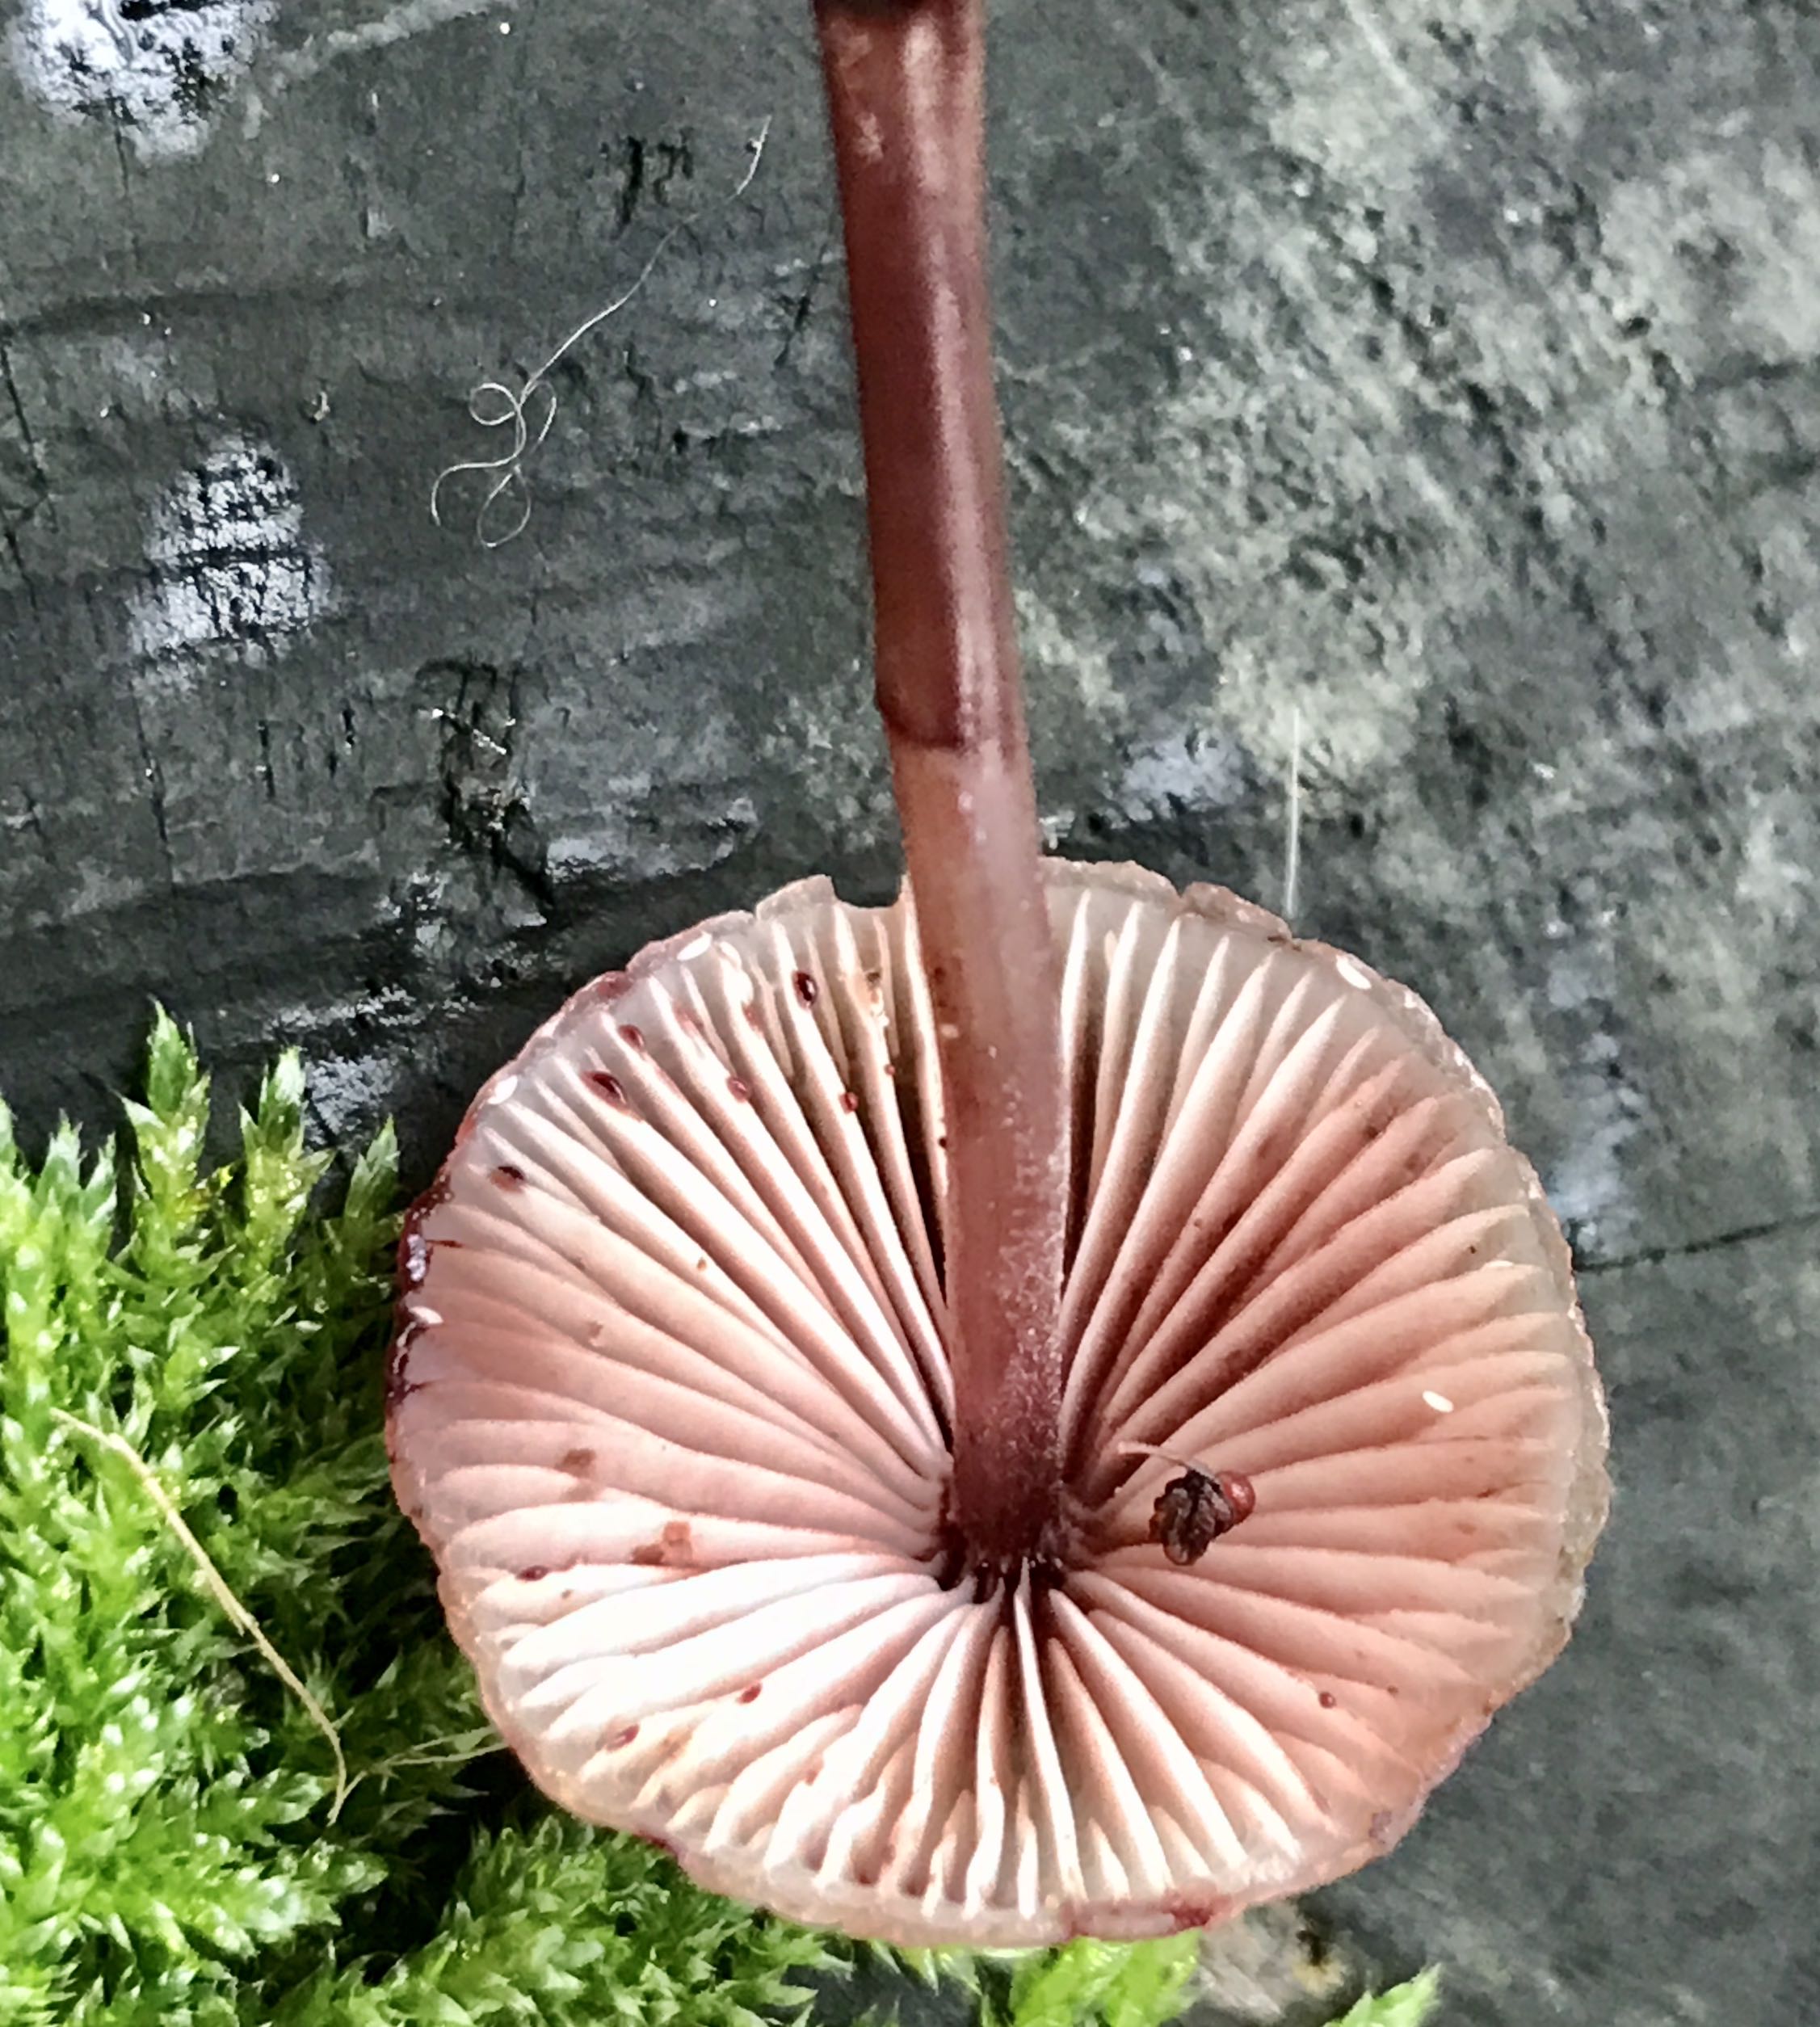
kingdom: Fungi
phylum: Basidiomycota
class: Agaricomycetes
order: Agaricales
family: Mycenaceae
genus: Mycena
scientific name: Mycena haematopus
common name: blødende huesvamp
